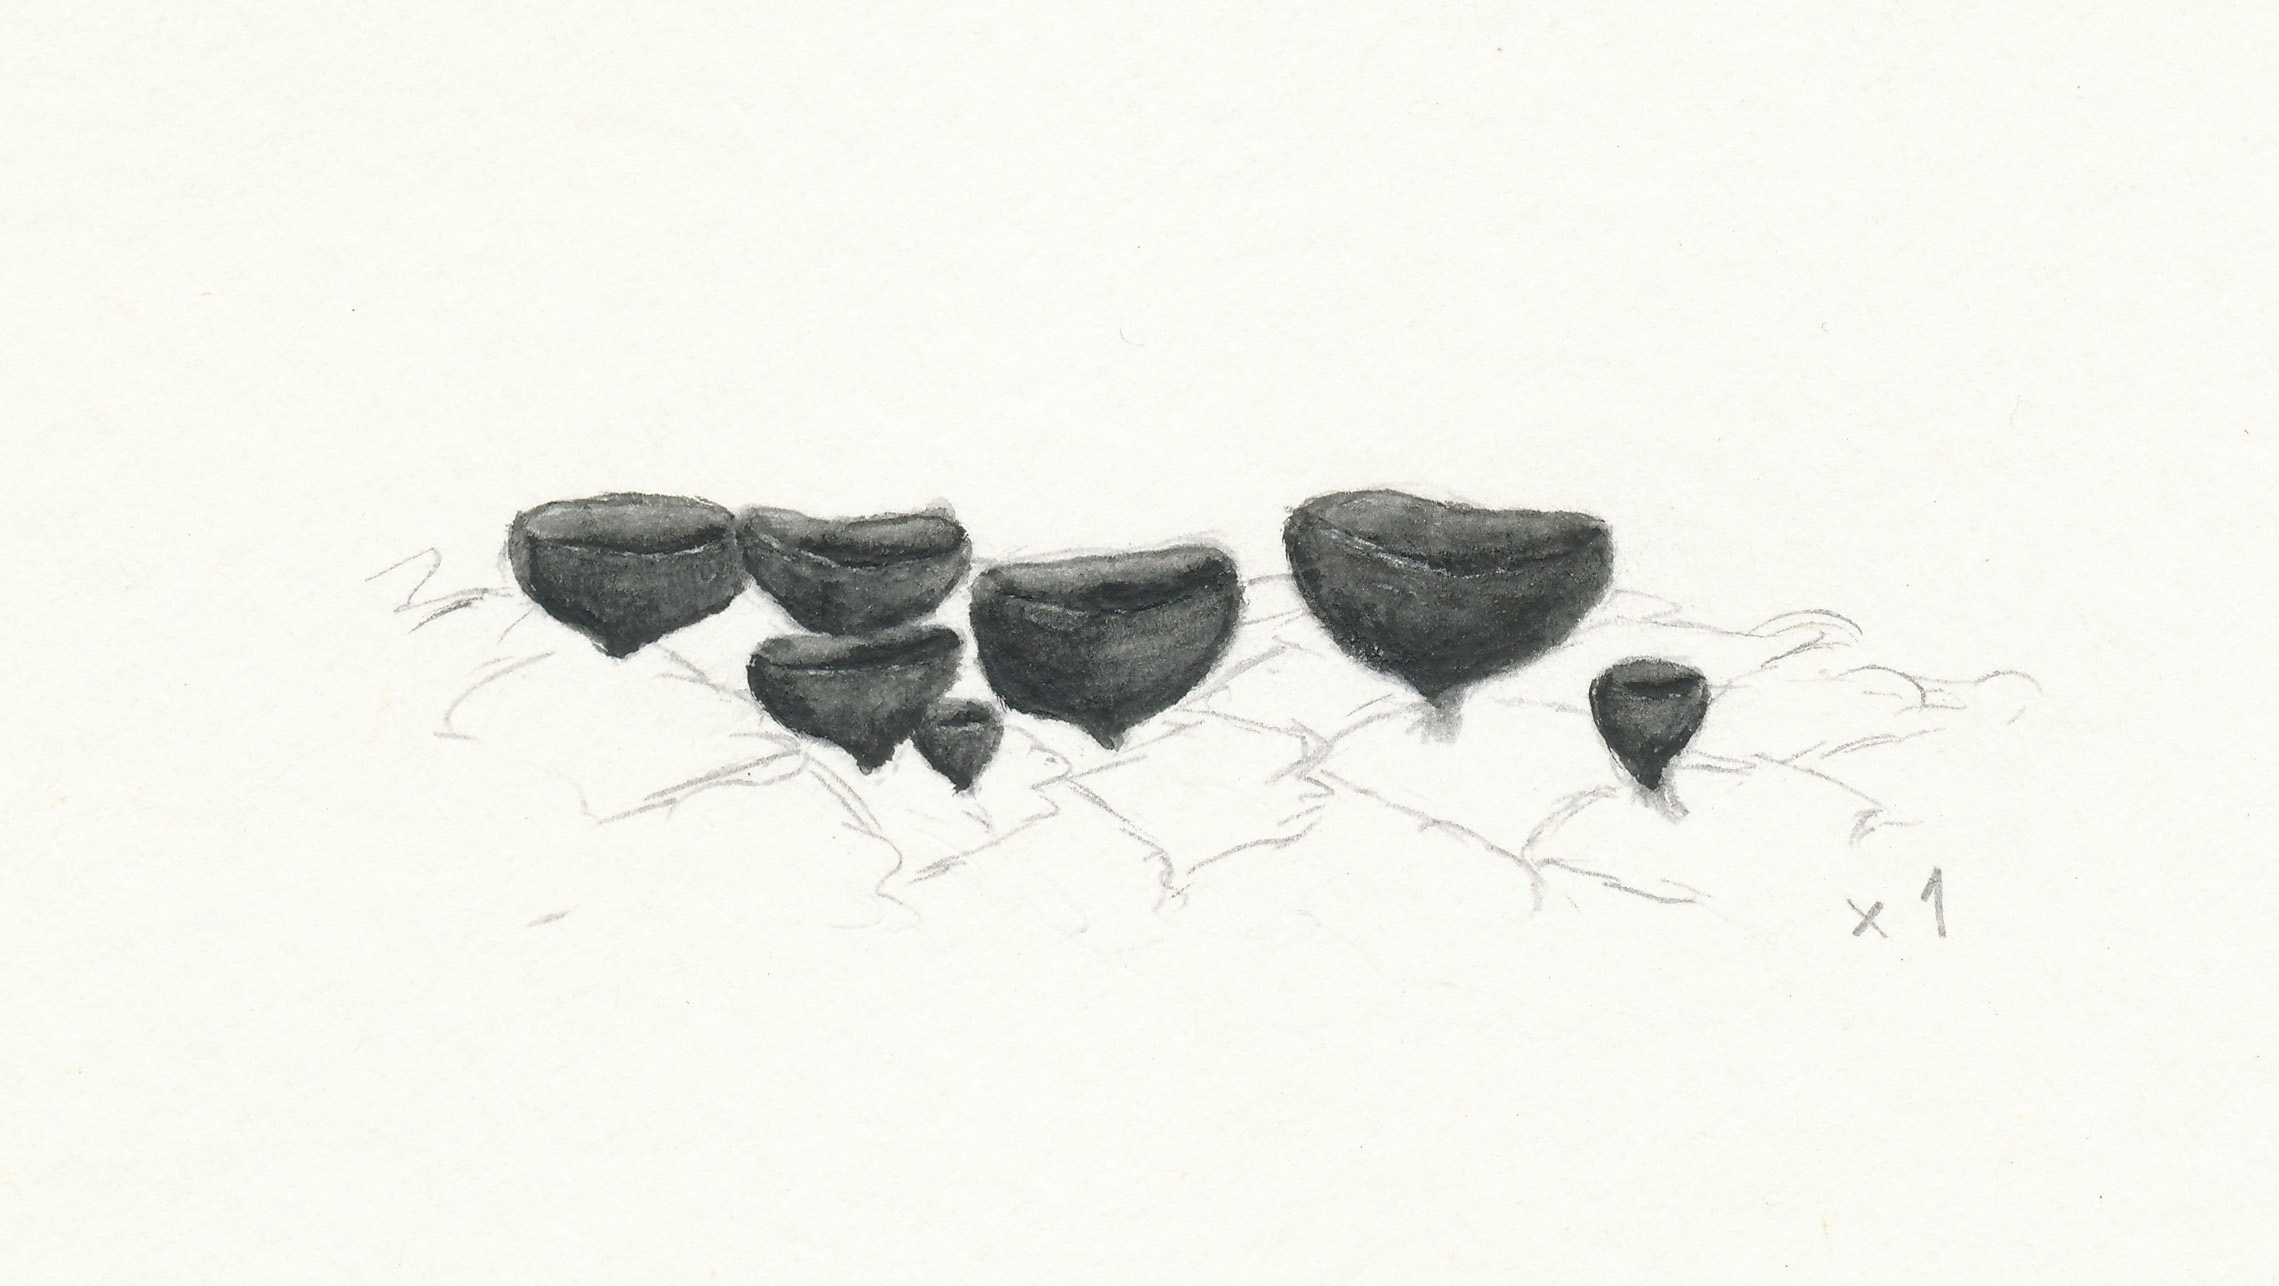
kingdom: Fungi
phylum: Ascomycota
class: Leotiomycetes
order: Helotiales
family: Rutstroemiaceae
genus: Rutstroemia
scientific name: Rutstroemia bulgarioides
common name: kogleskive
